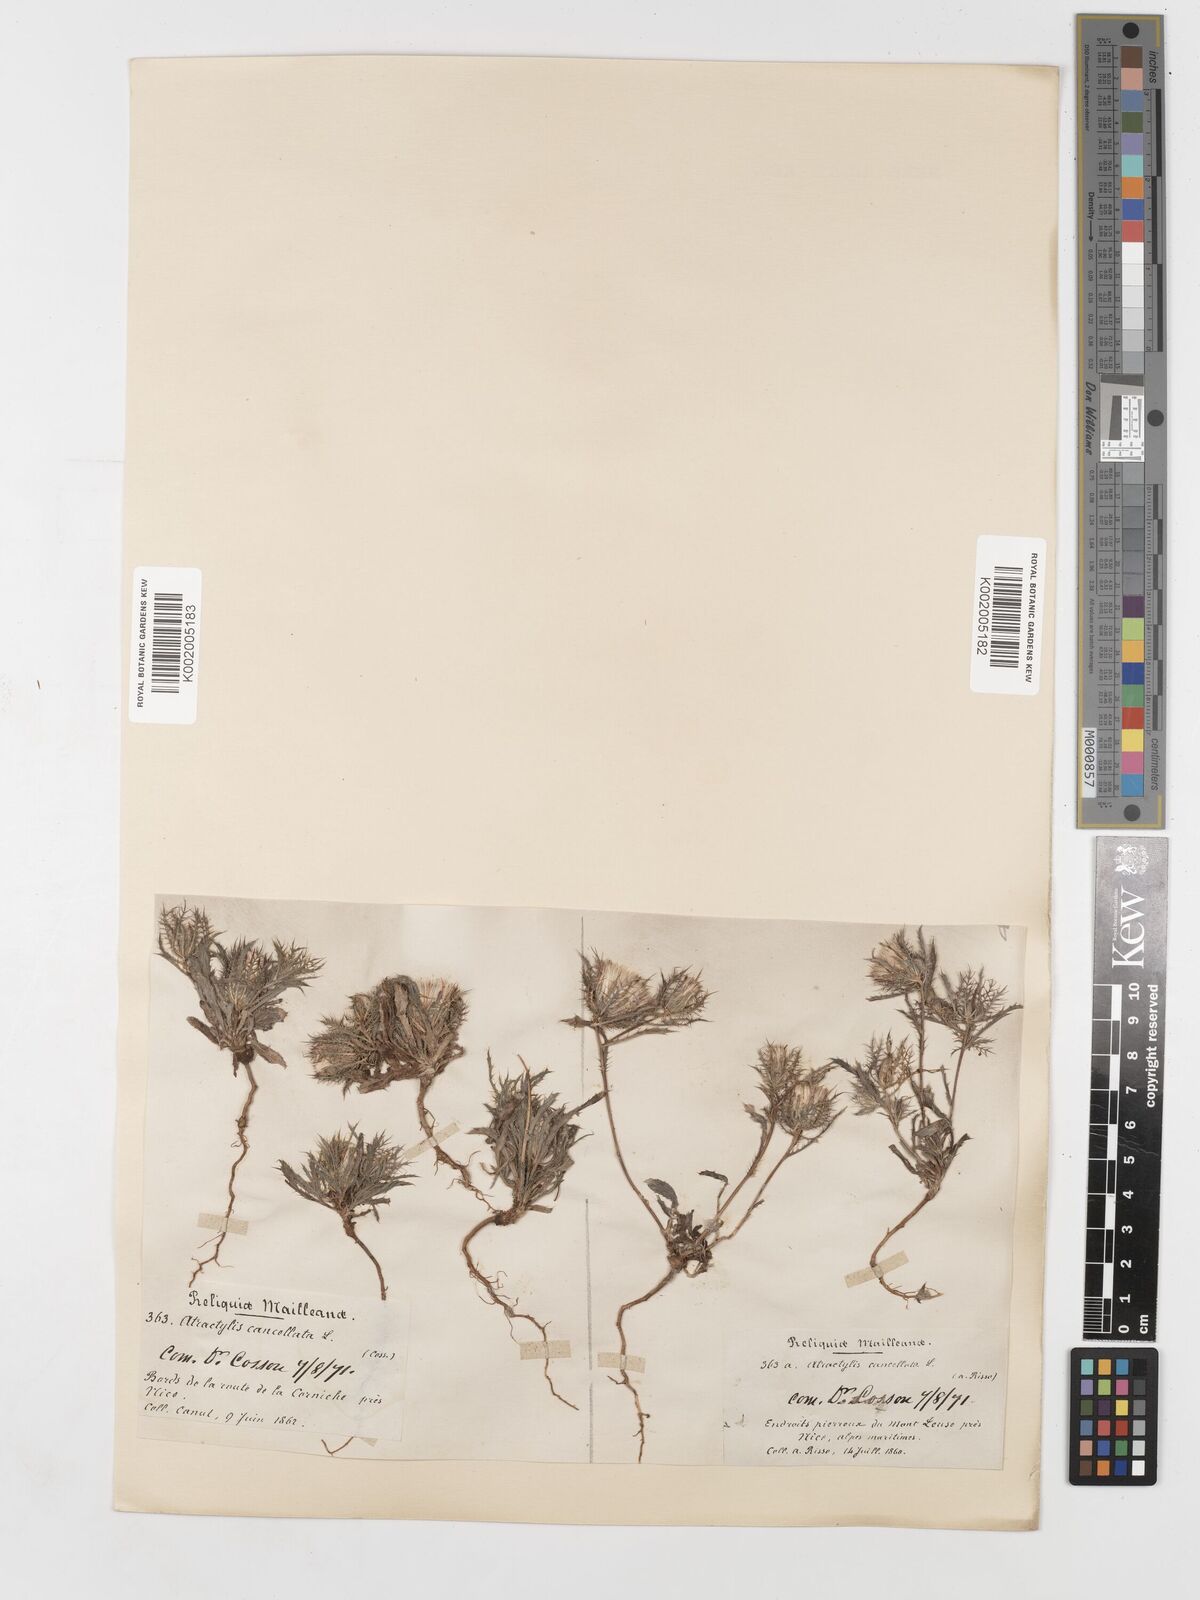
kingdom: Plantae
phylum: Tracheophyta
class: Magnoliopsida
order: Asterales
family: Asteraceae
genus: Atractylis
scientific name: Atractylis cancellata
